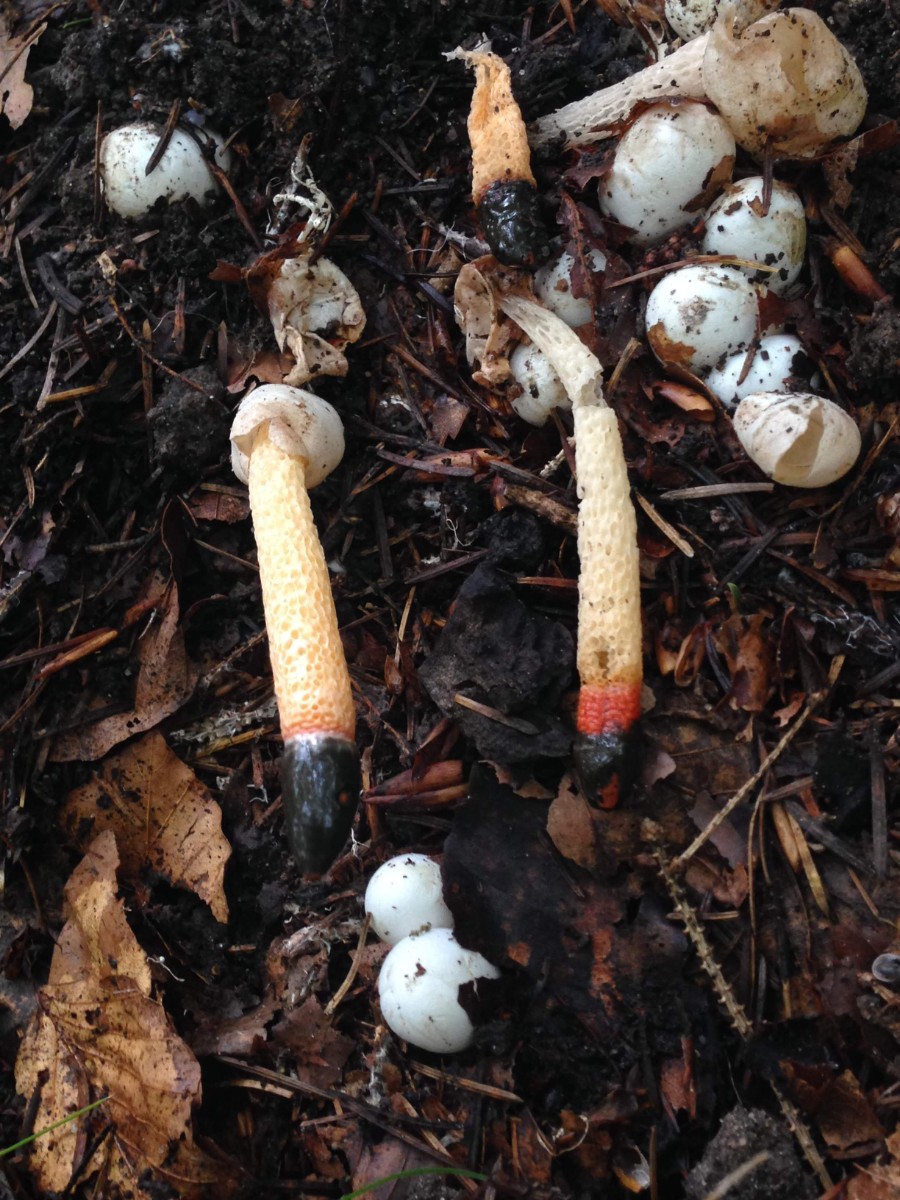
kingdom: Fungi
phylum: Basidiomycota
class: Agaricomycetes
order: Phallales
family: Phallaceae
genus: Mutinus
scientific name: Mutinus caninus
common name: hunde-stinksvamp
